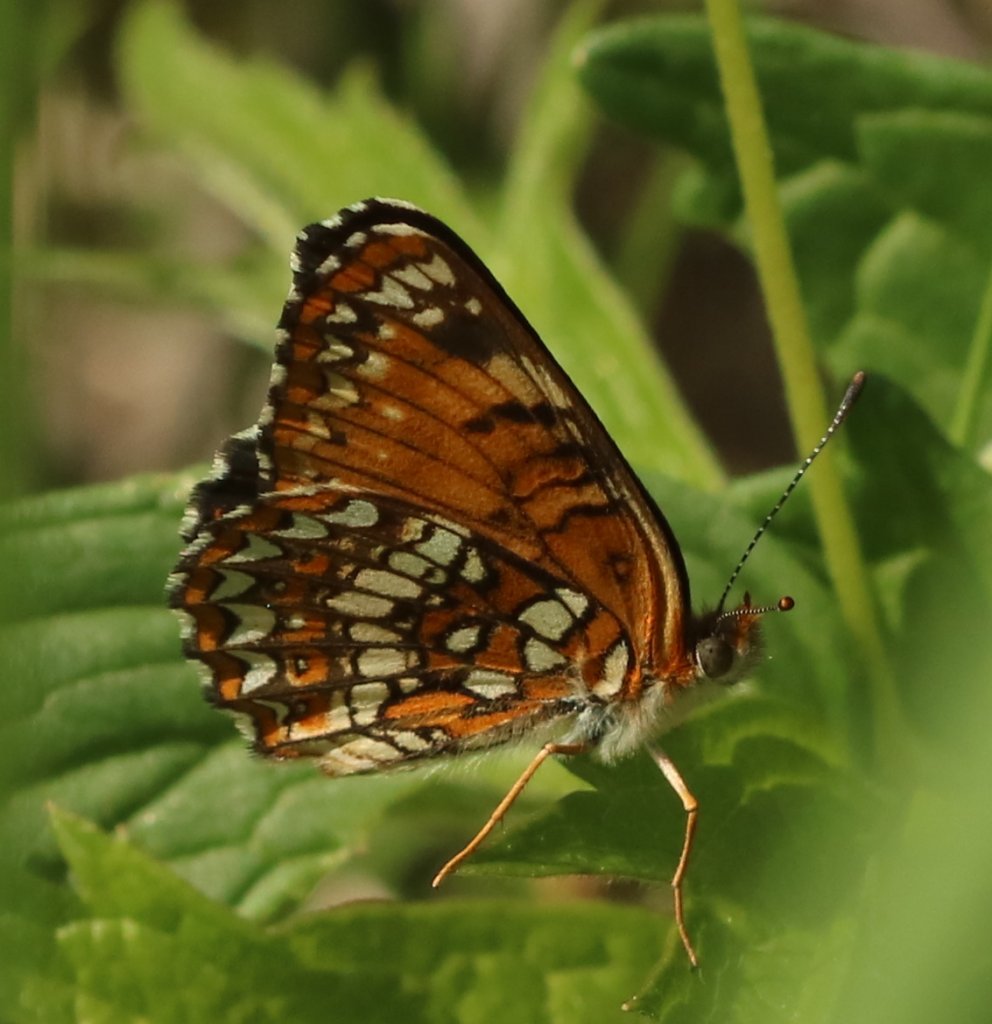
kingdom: Animalia
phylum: Arthropoda
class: Insecta
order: Lepidoptera
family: Nymphalidae
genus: Chlosyne
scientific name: Chlosyne harrisii
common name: Harris's Checkerspot
